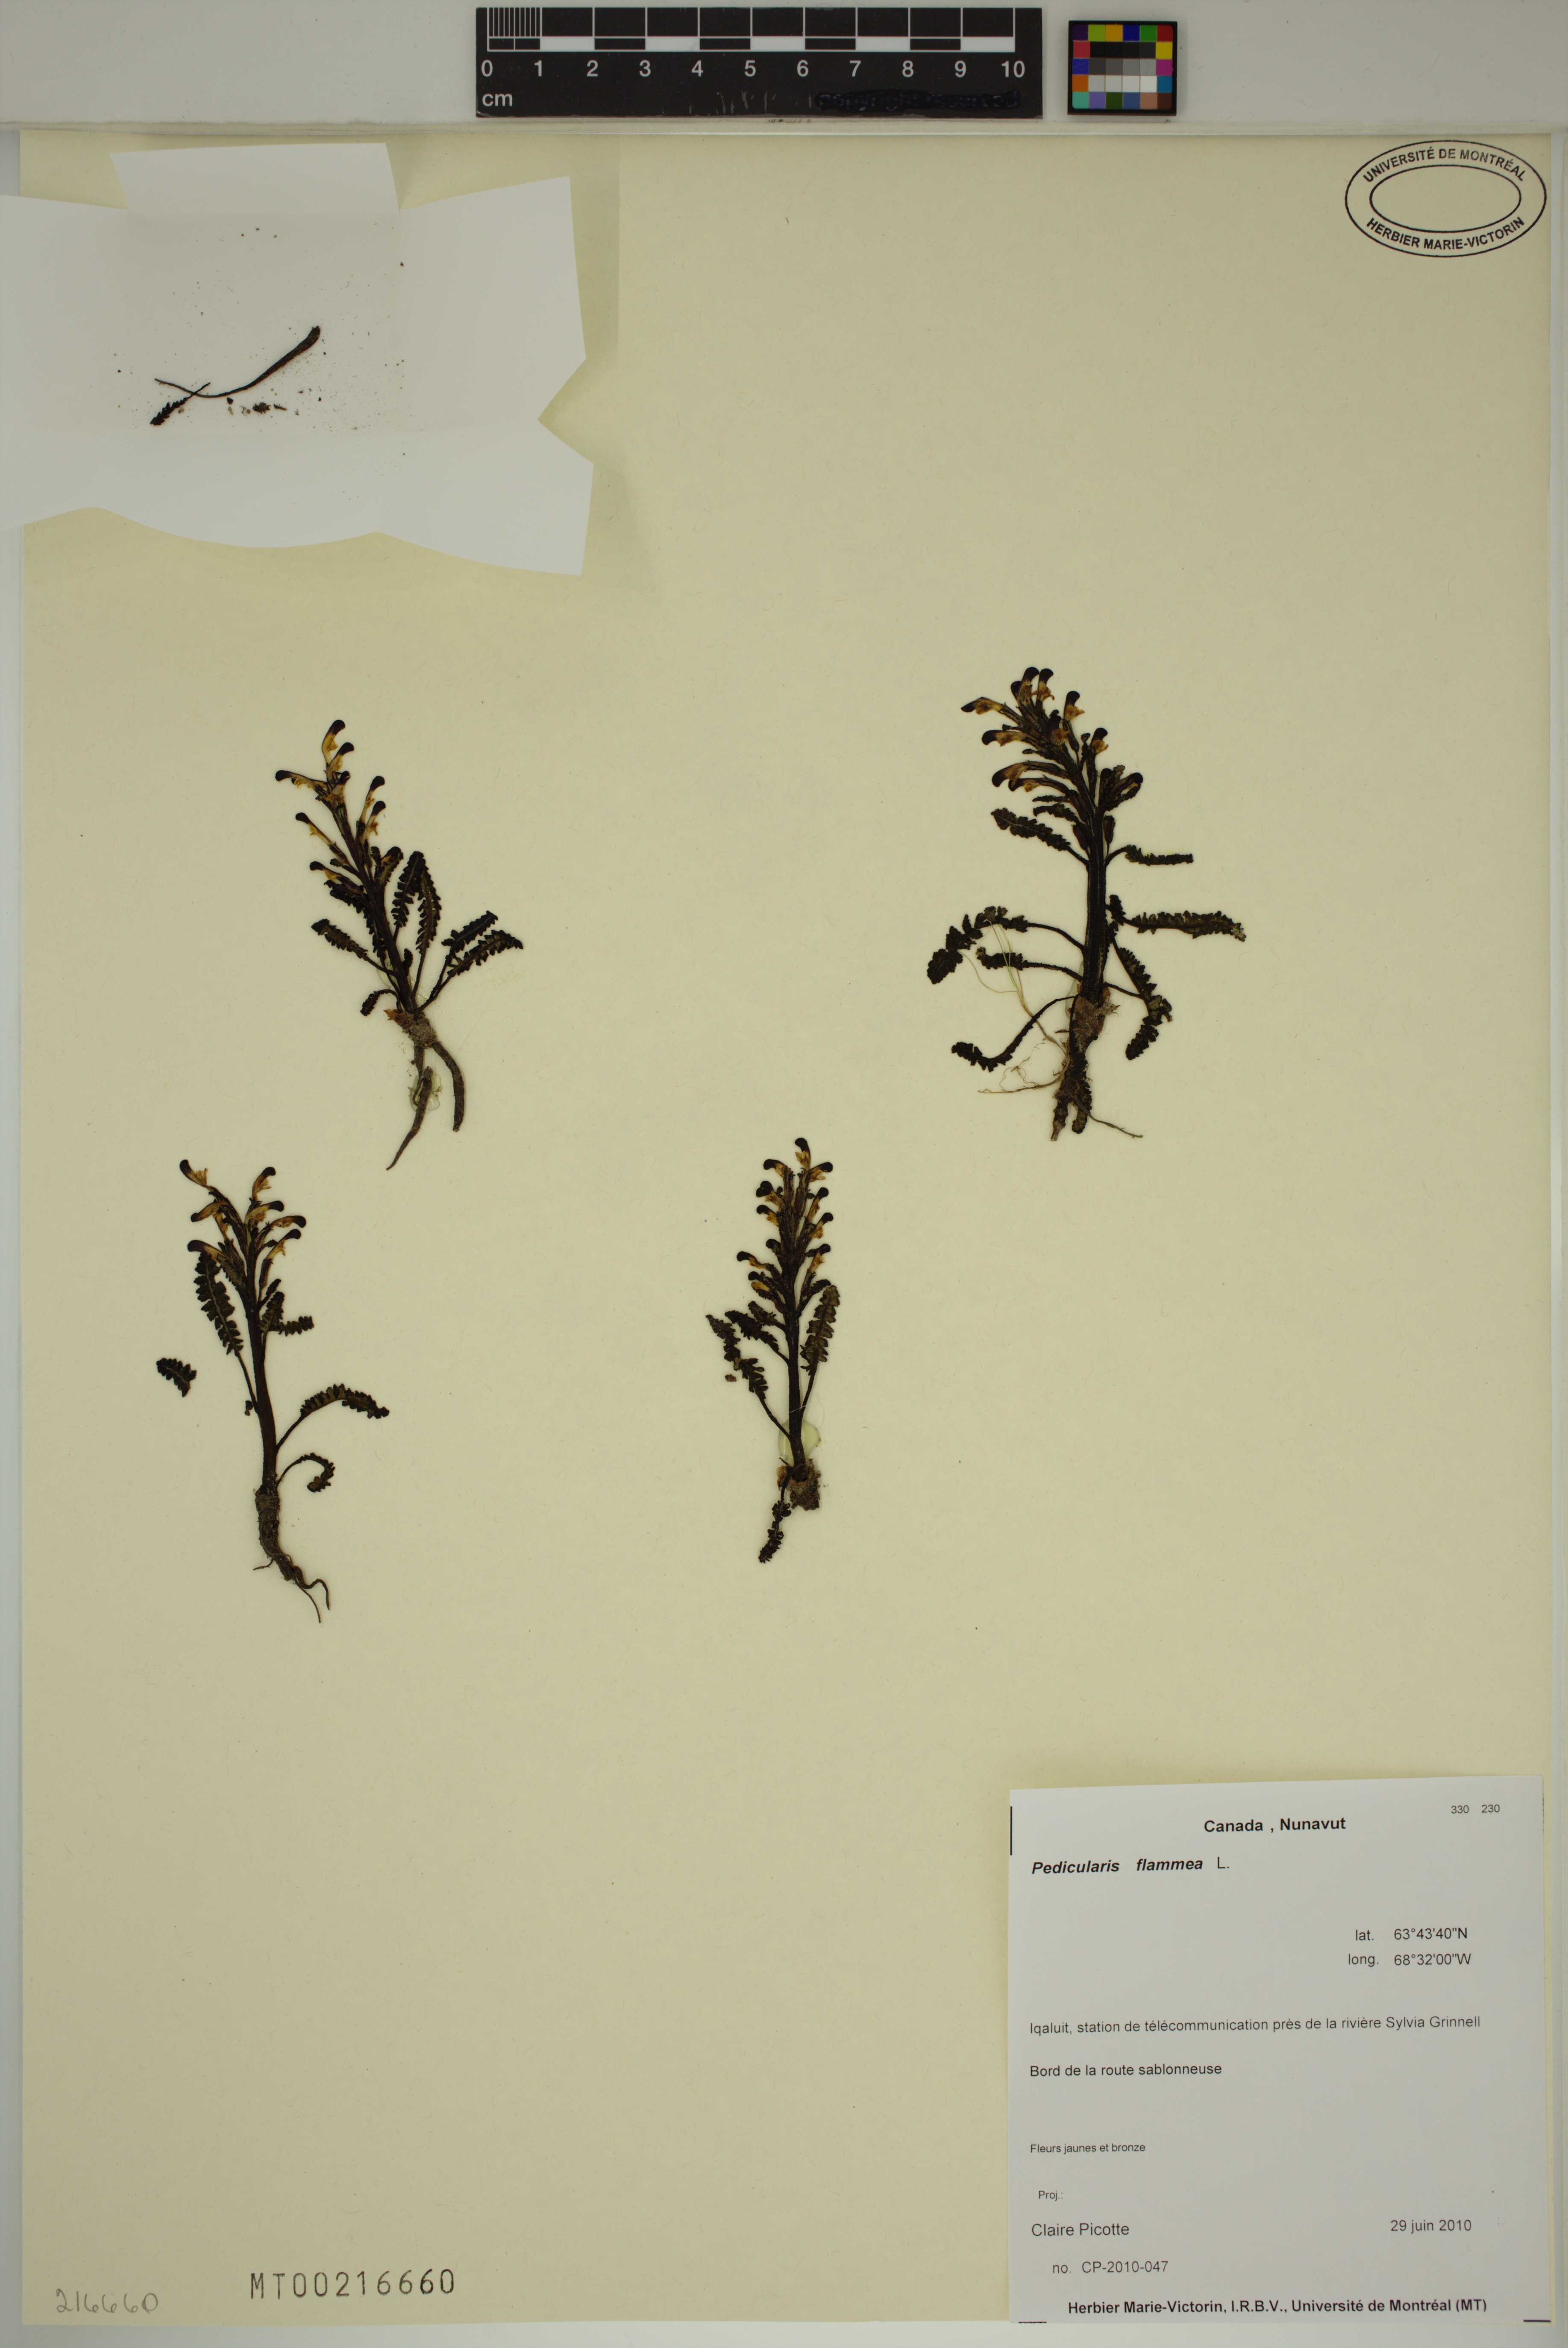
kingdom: Plantae
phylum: Tracheophyta
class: Magnoliopsida
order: Lamiales
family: Orobanchaceae
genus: Pedicularis
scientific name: Pedicularis flammea
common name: Flame-coloured lousewort
